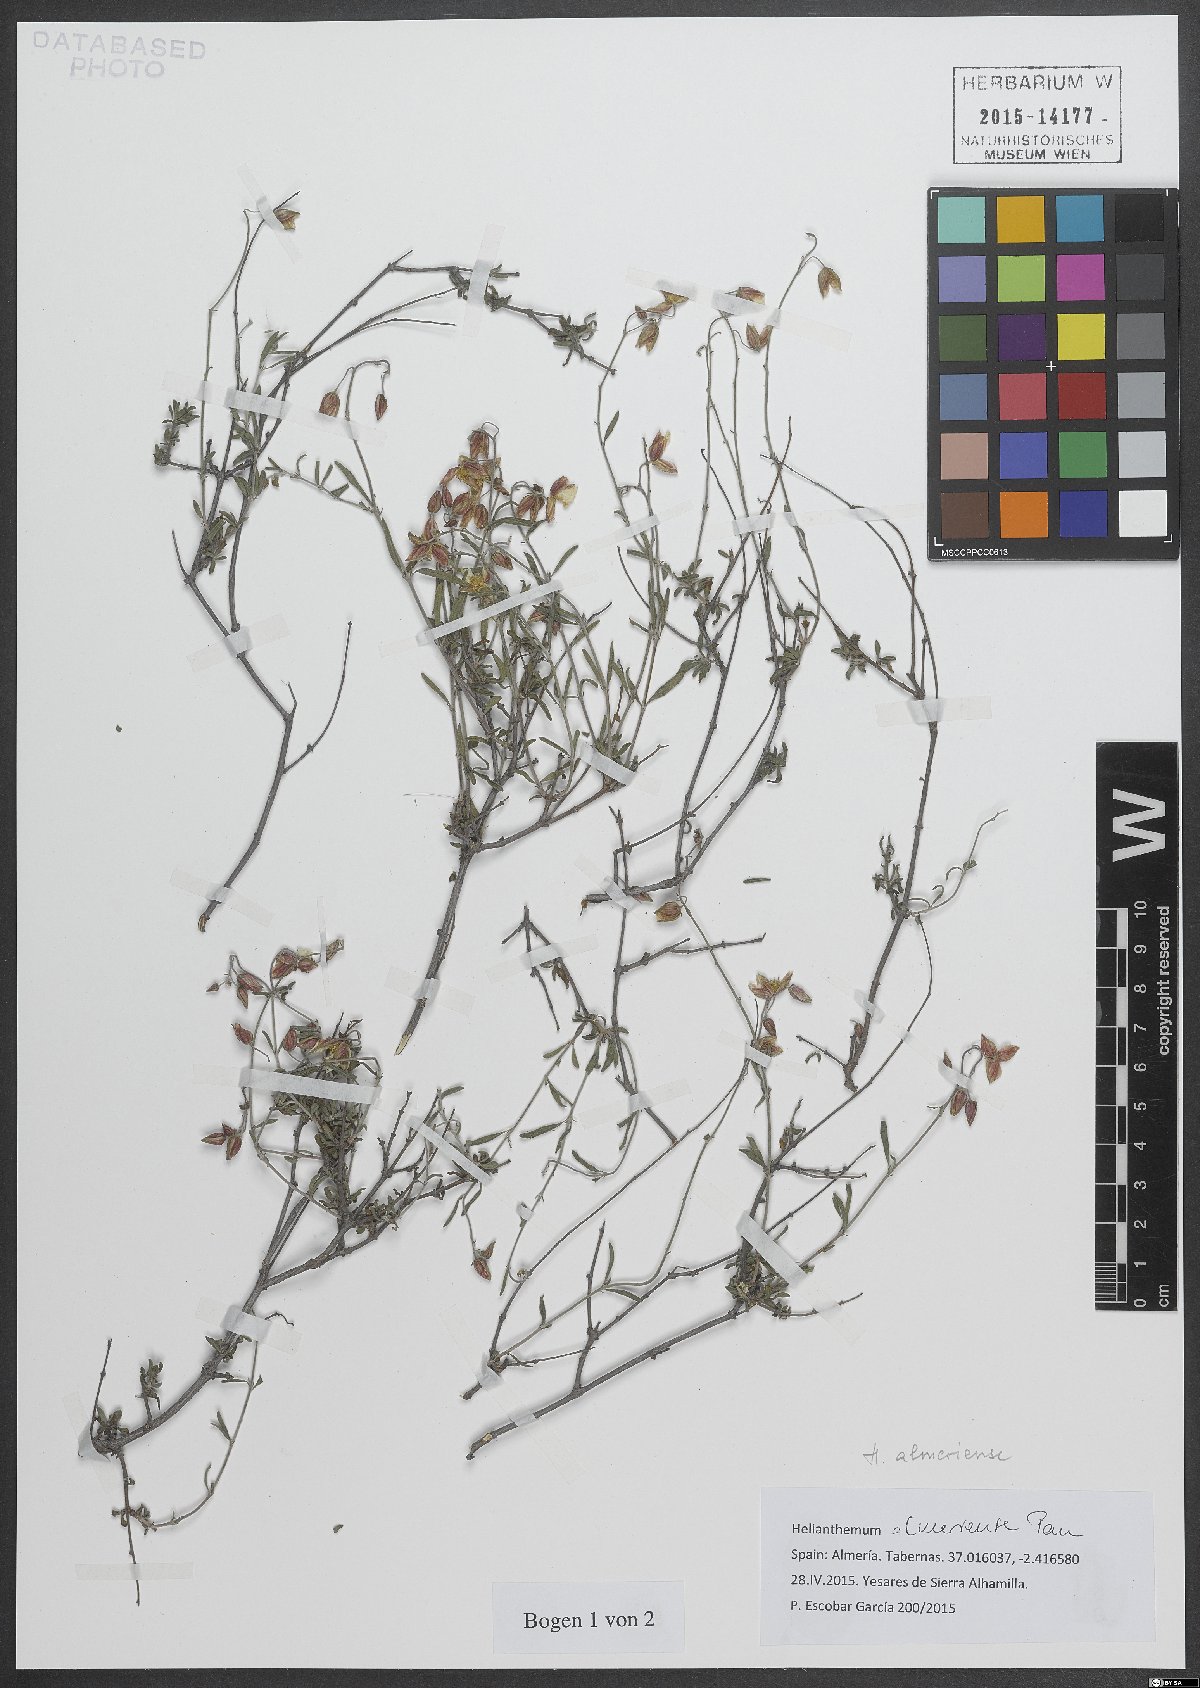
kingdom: Plantae
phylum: Tracheophyta
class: Magnoliopsida
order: Malvales
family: Cistaceae
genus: Helianthemum
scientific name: Helianthemum almeriense
